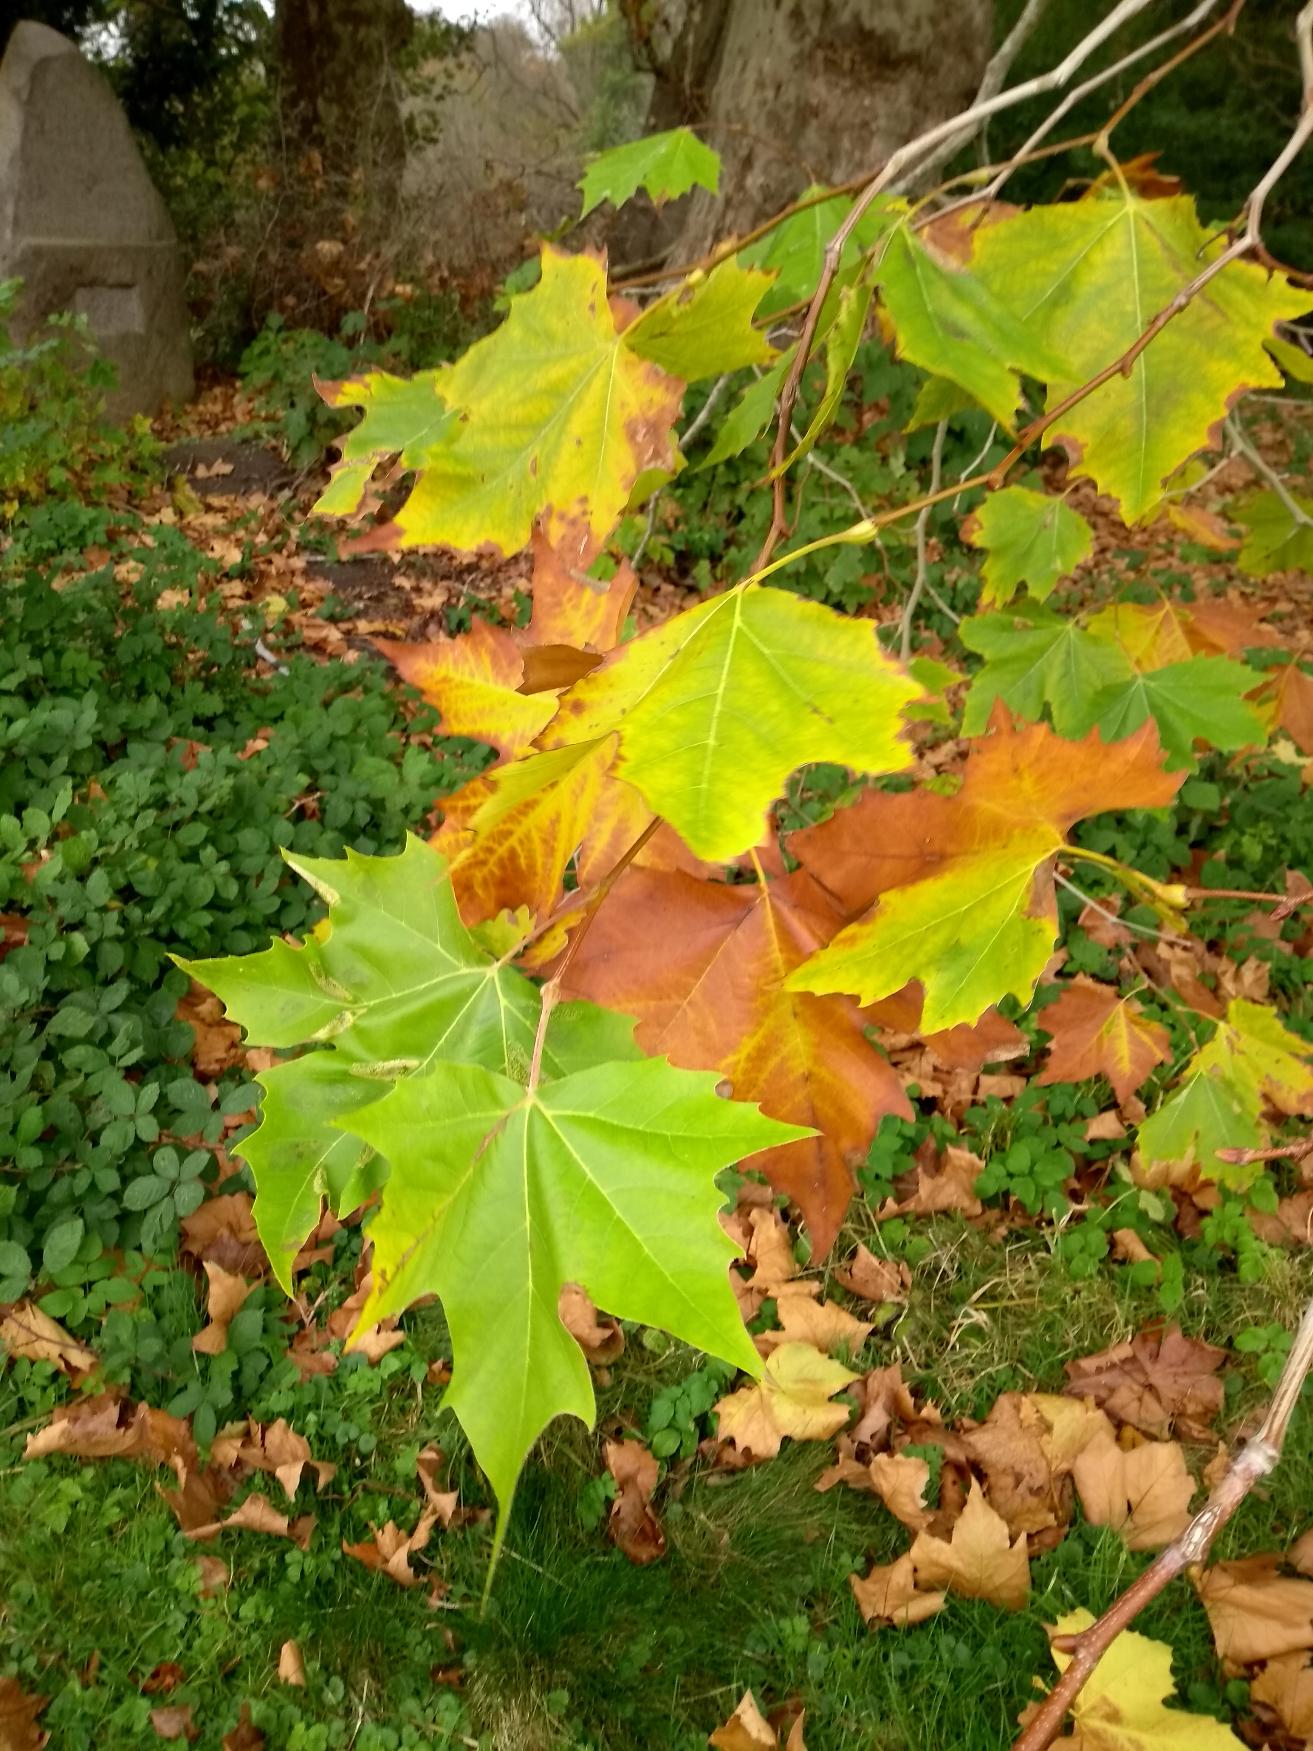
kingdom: Plantae
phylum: Tracheophyta
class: Magnoliopsida
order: Proteales
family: Platanaceae
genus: Platanus
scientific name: Platanus hispanica
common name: Almindelig platan
